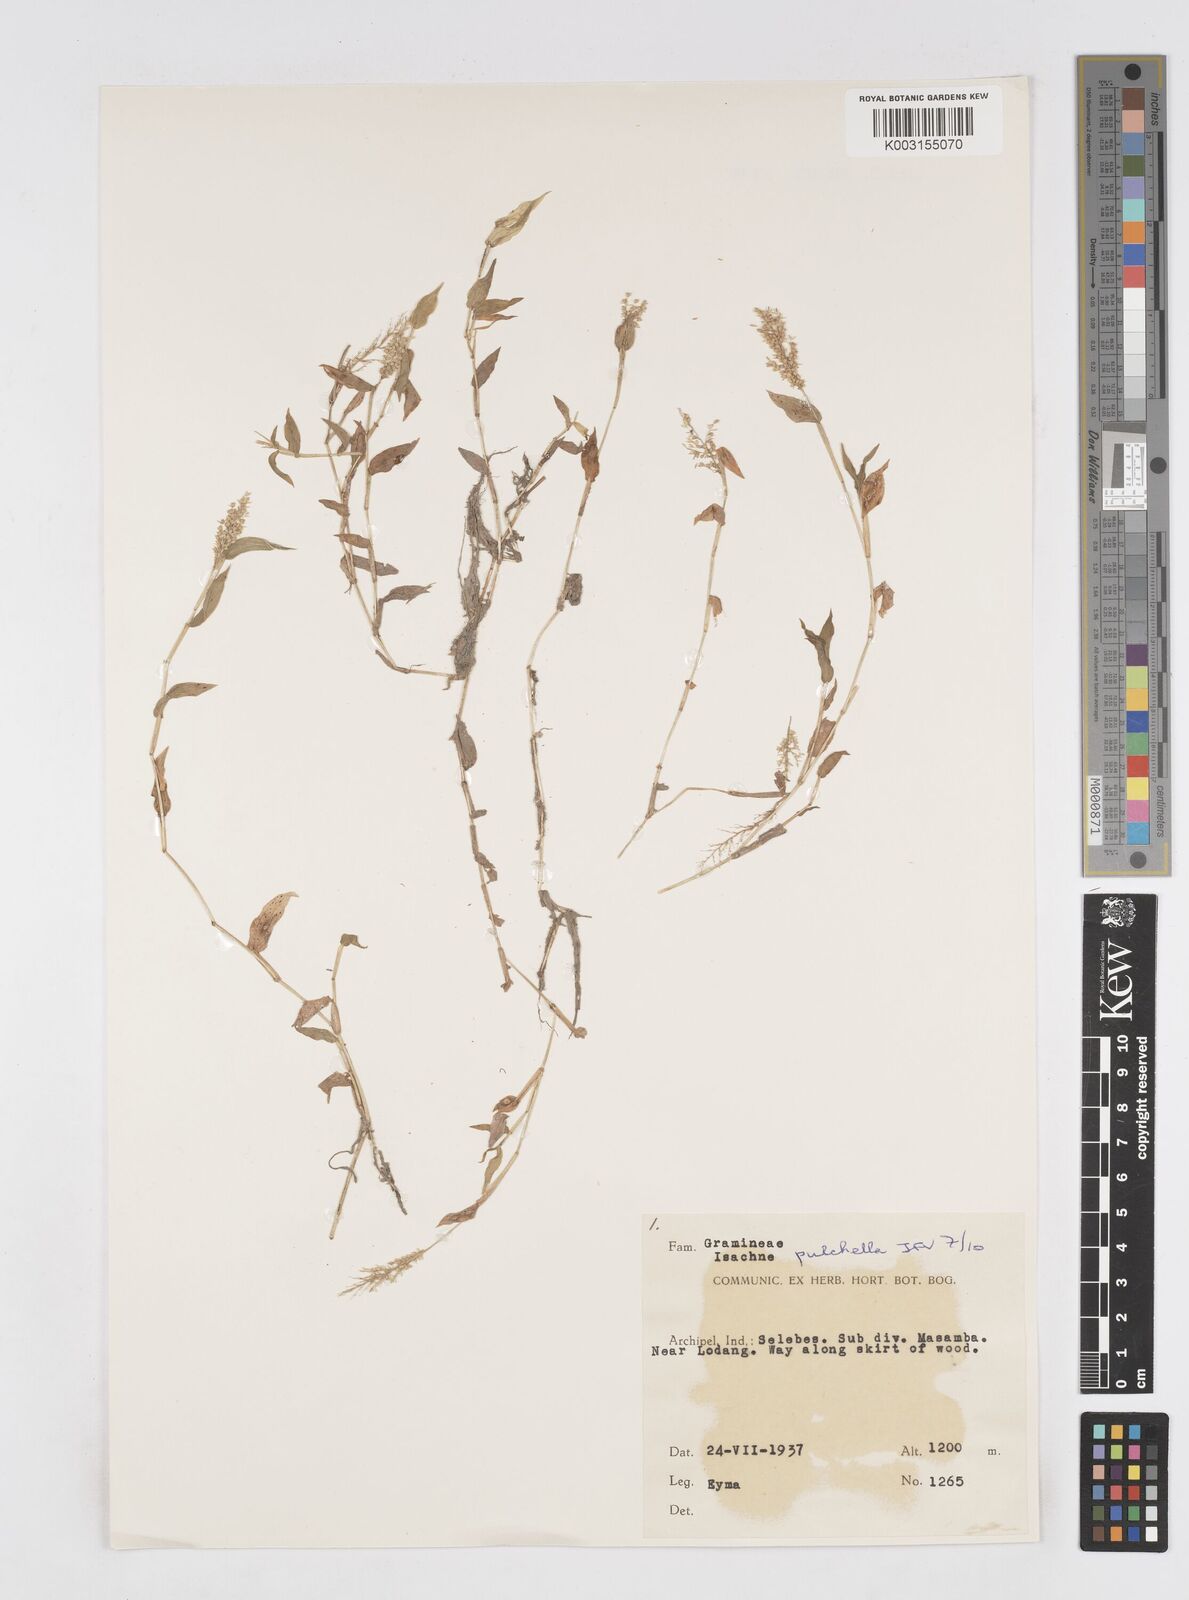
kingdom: Plantae
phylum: Tracheophyta
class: Liliopsida
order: Poales
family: Poaceae
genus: Isachne
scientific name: Isachne pulchella
